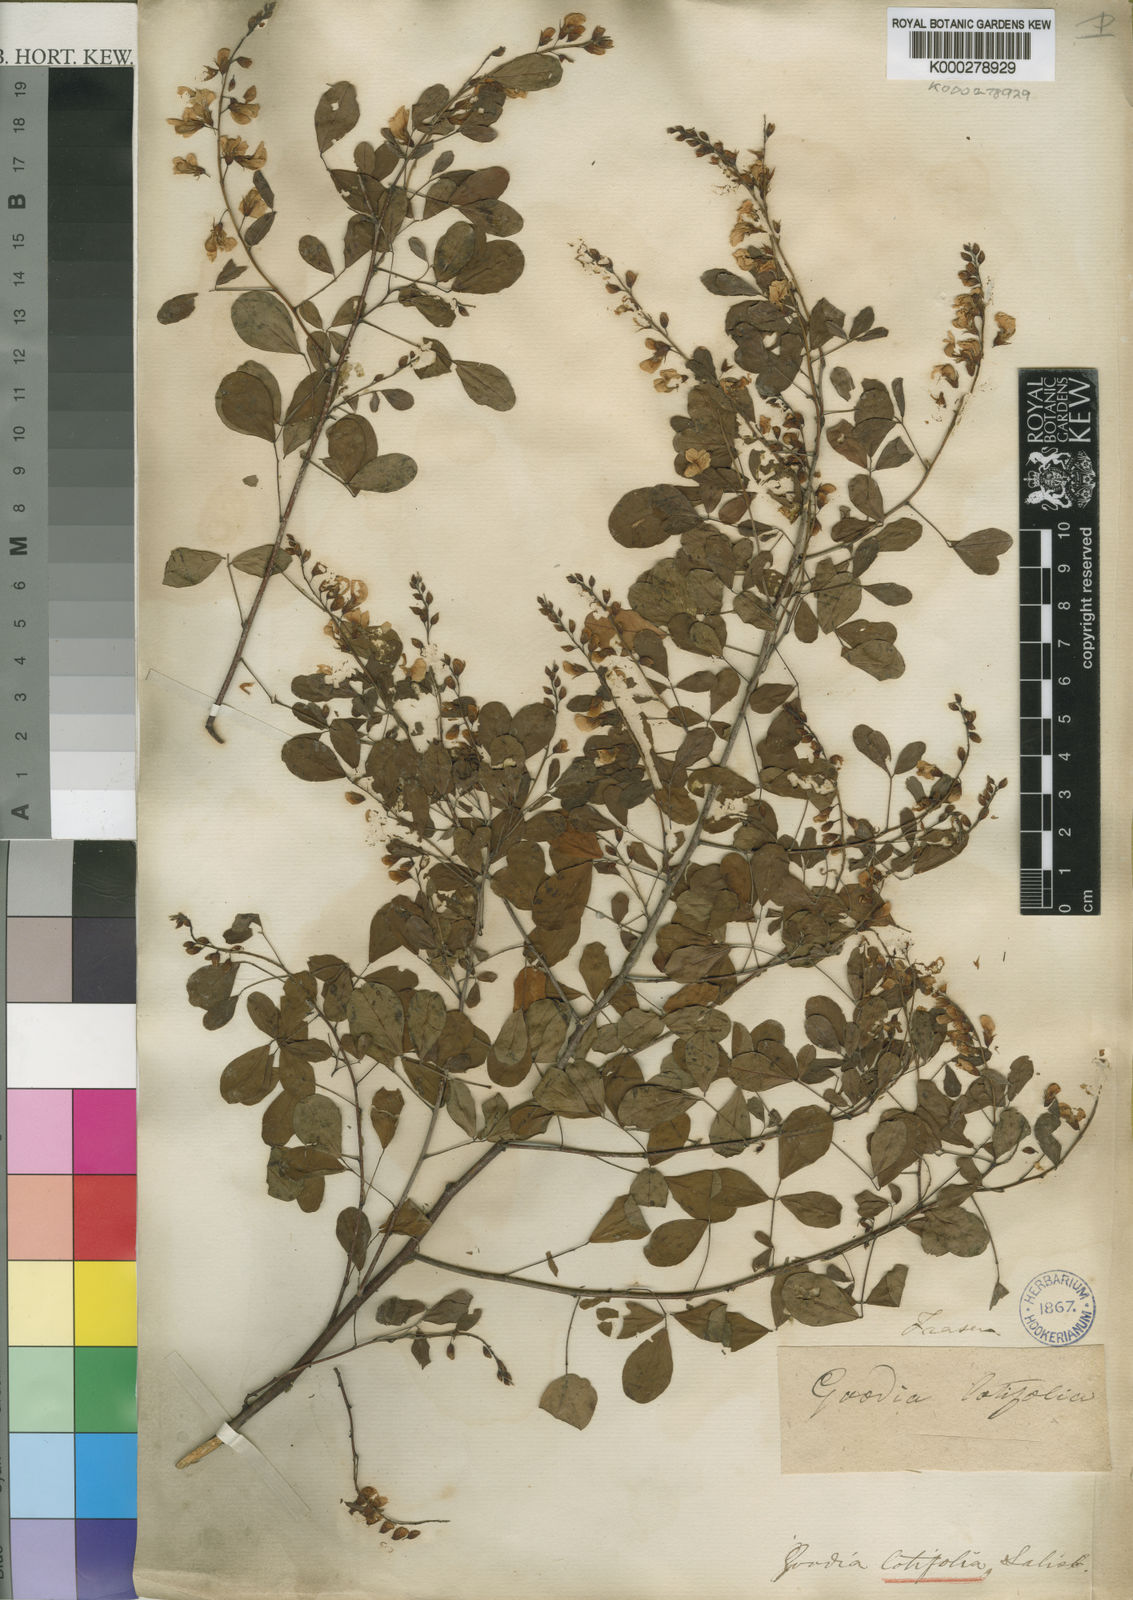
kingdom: Plantae
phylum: Tracheophyta
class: Magnoliopsida
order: Fabales
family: Fabaceae
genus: Goodia
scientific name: Goodia lotifolia
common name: Cloverleaf-poison
